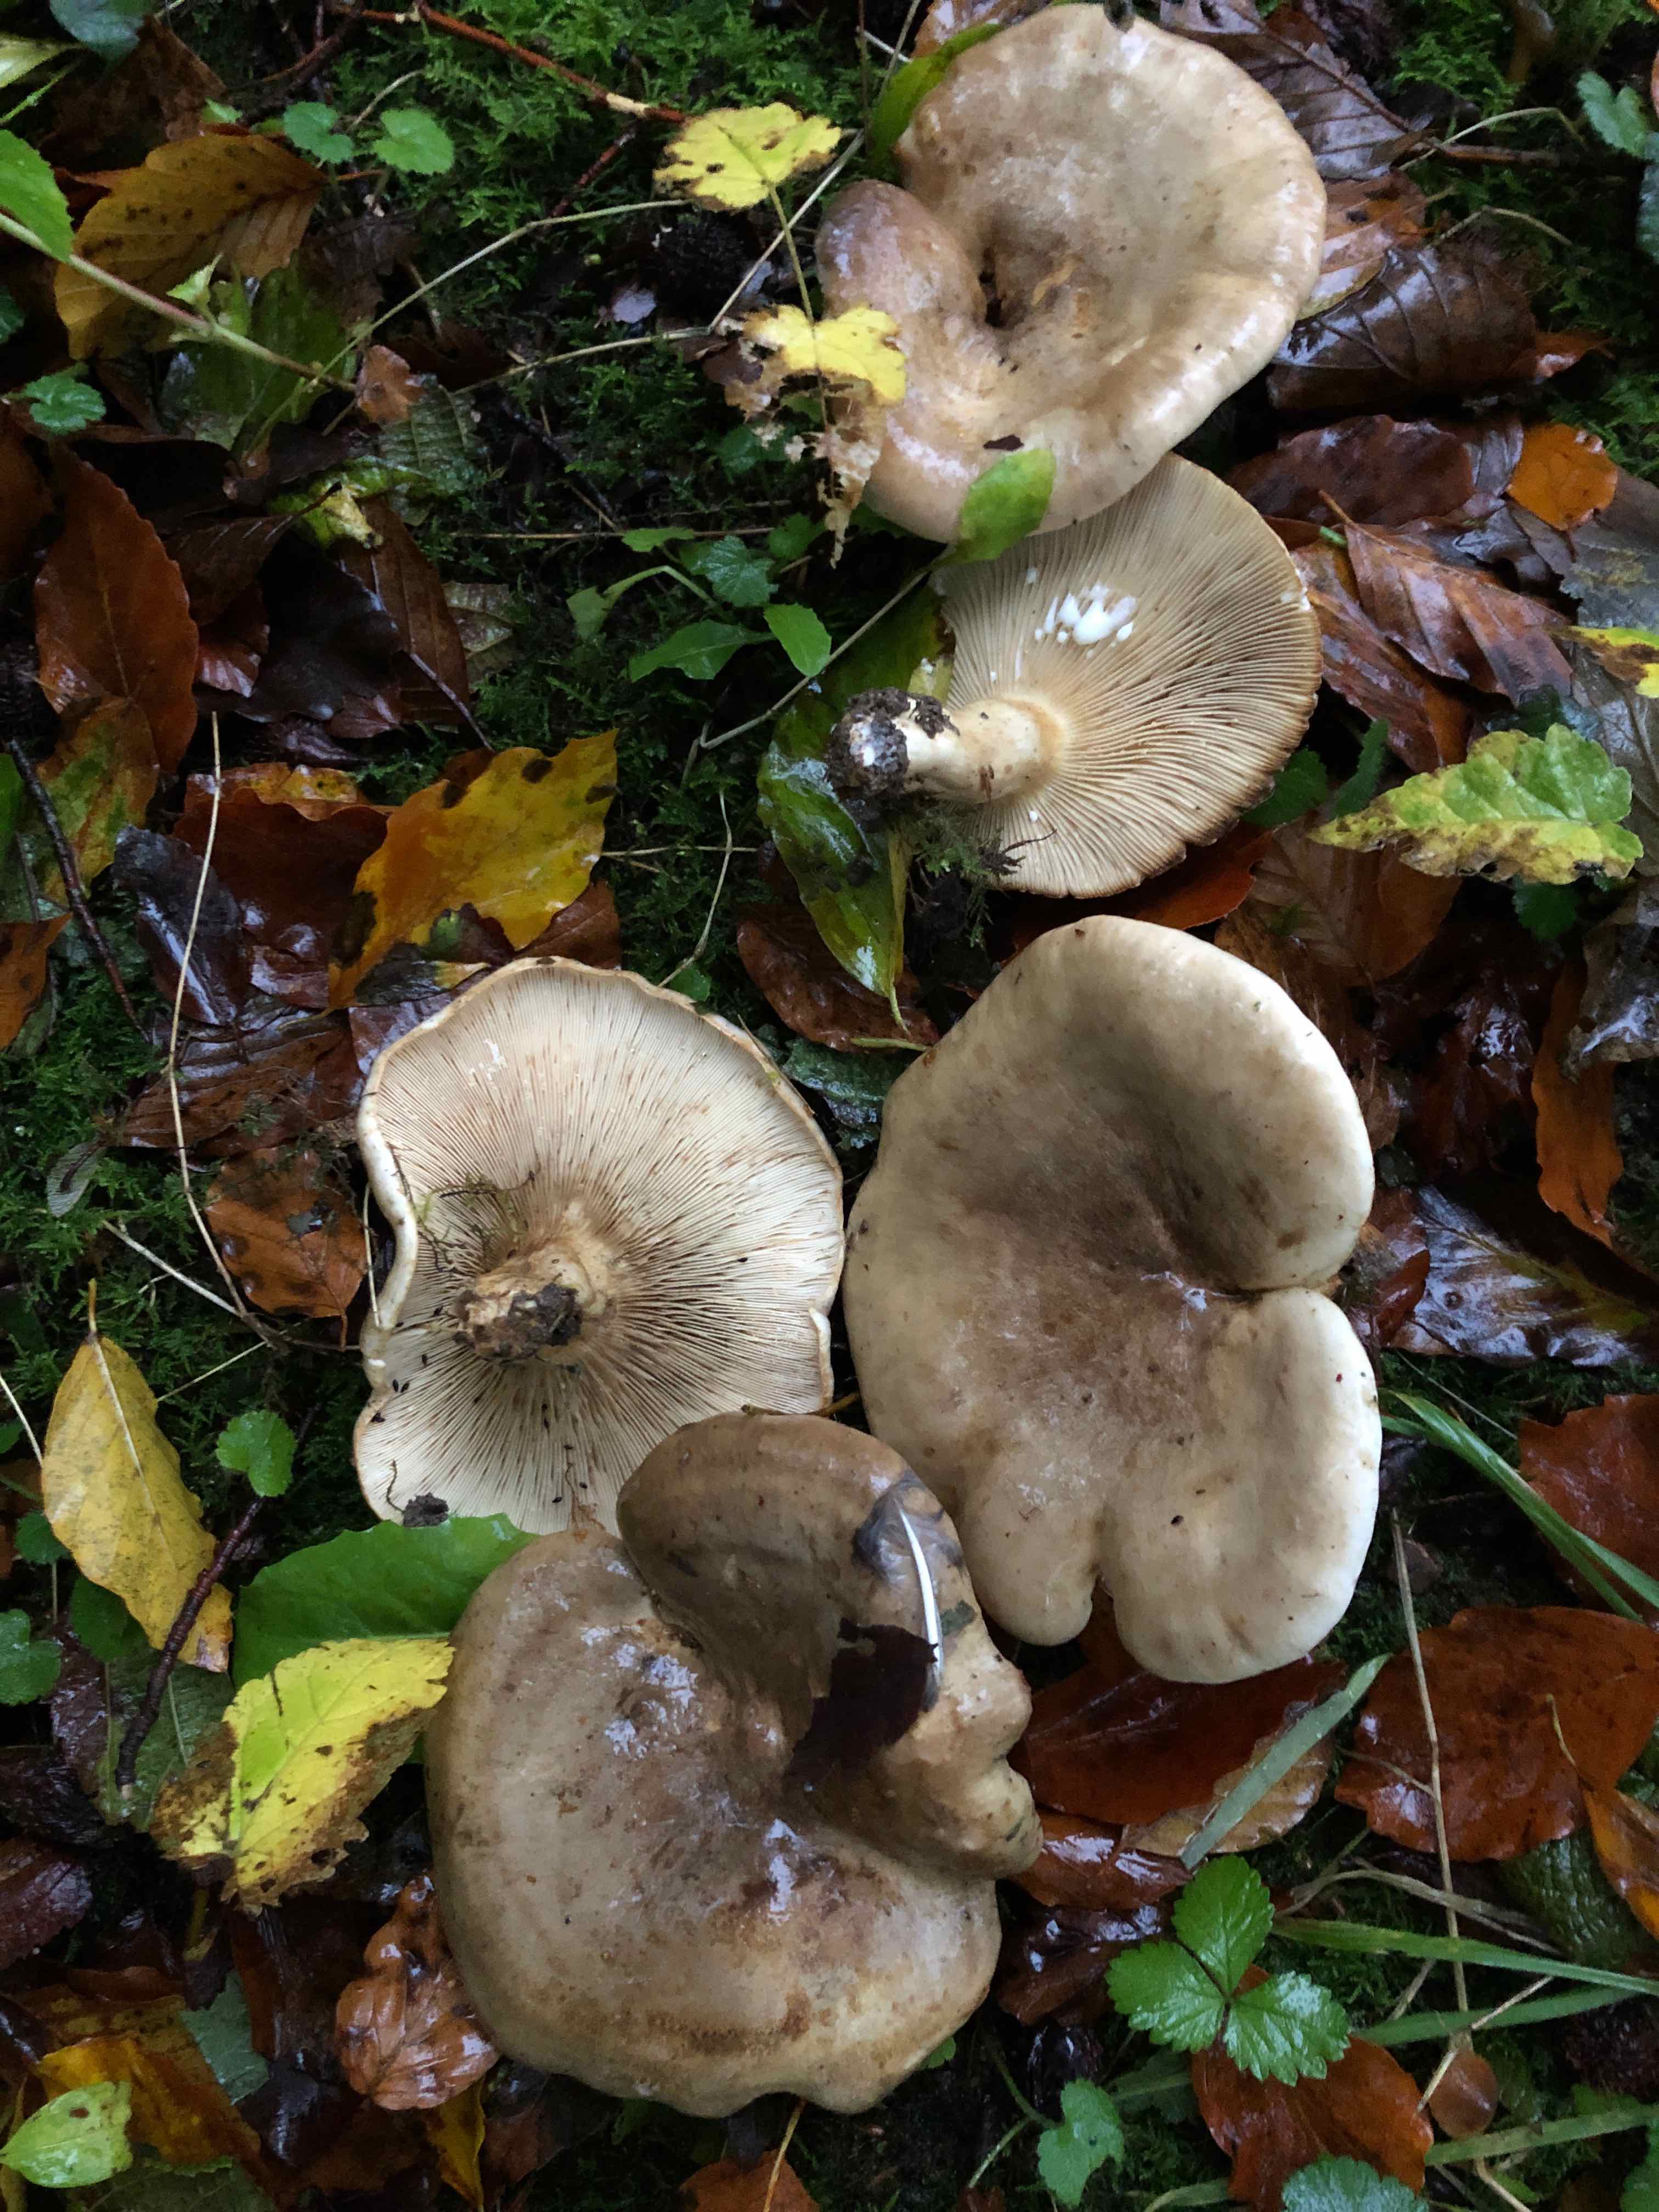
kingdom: Fungi
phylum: Basidiomycota
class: Agaricomycetes
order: Russulales
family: Russulaceae
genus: Lactarius
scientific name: Lactarius fluens
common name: lysrandet mælkehat
